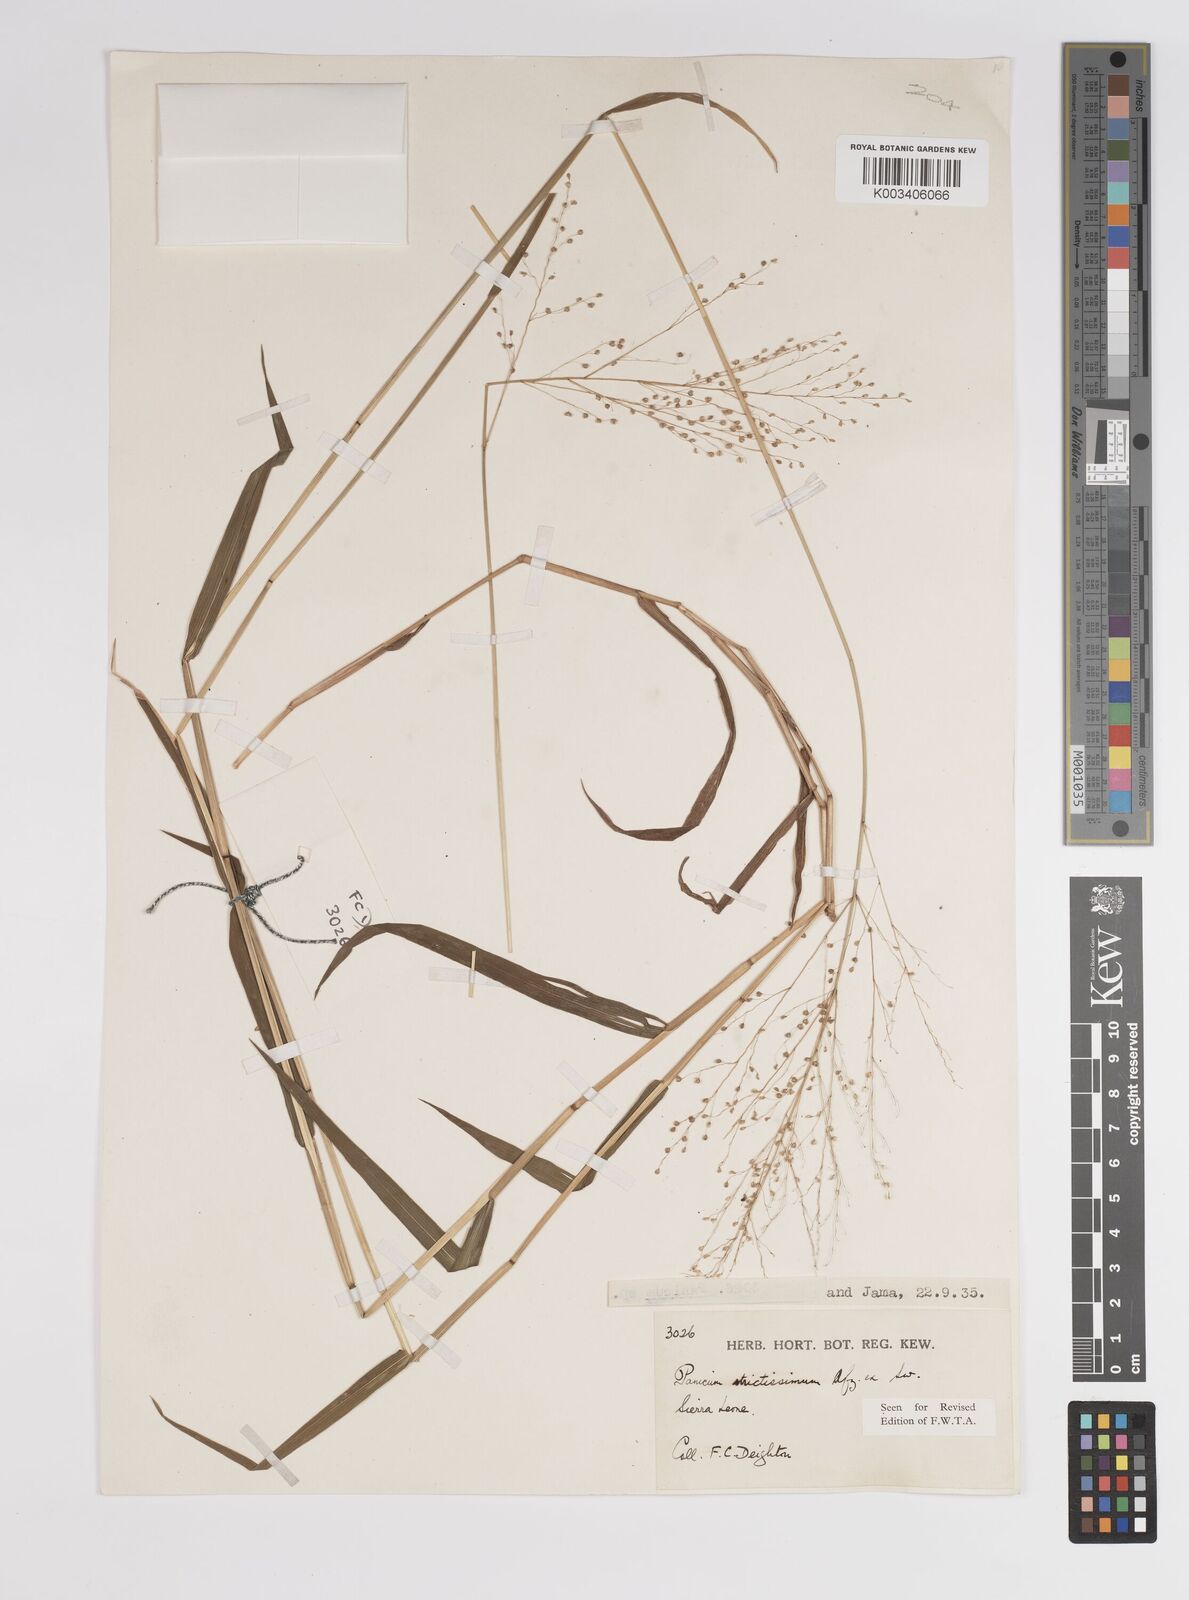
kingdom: Plantae
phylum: Tracheophyta
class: Liliopsida
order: Poales
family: Poaceae
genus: Panicum
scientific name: Panicum eickii
